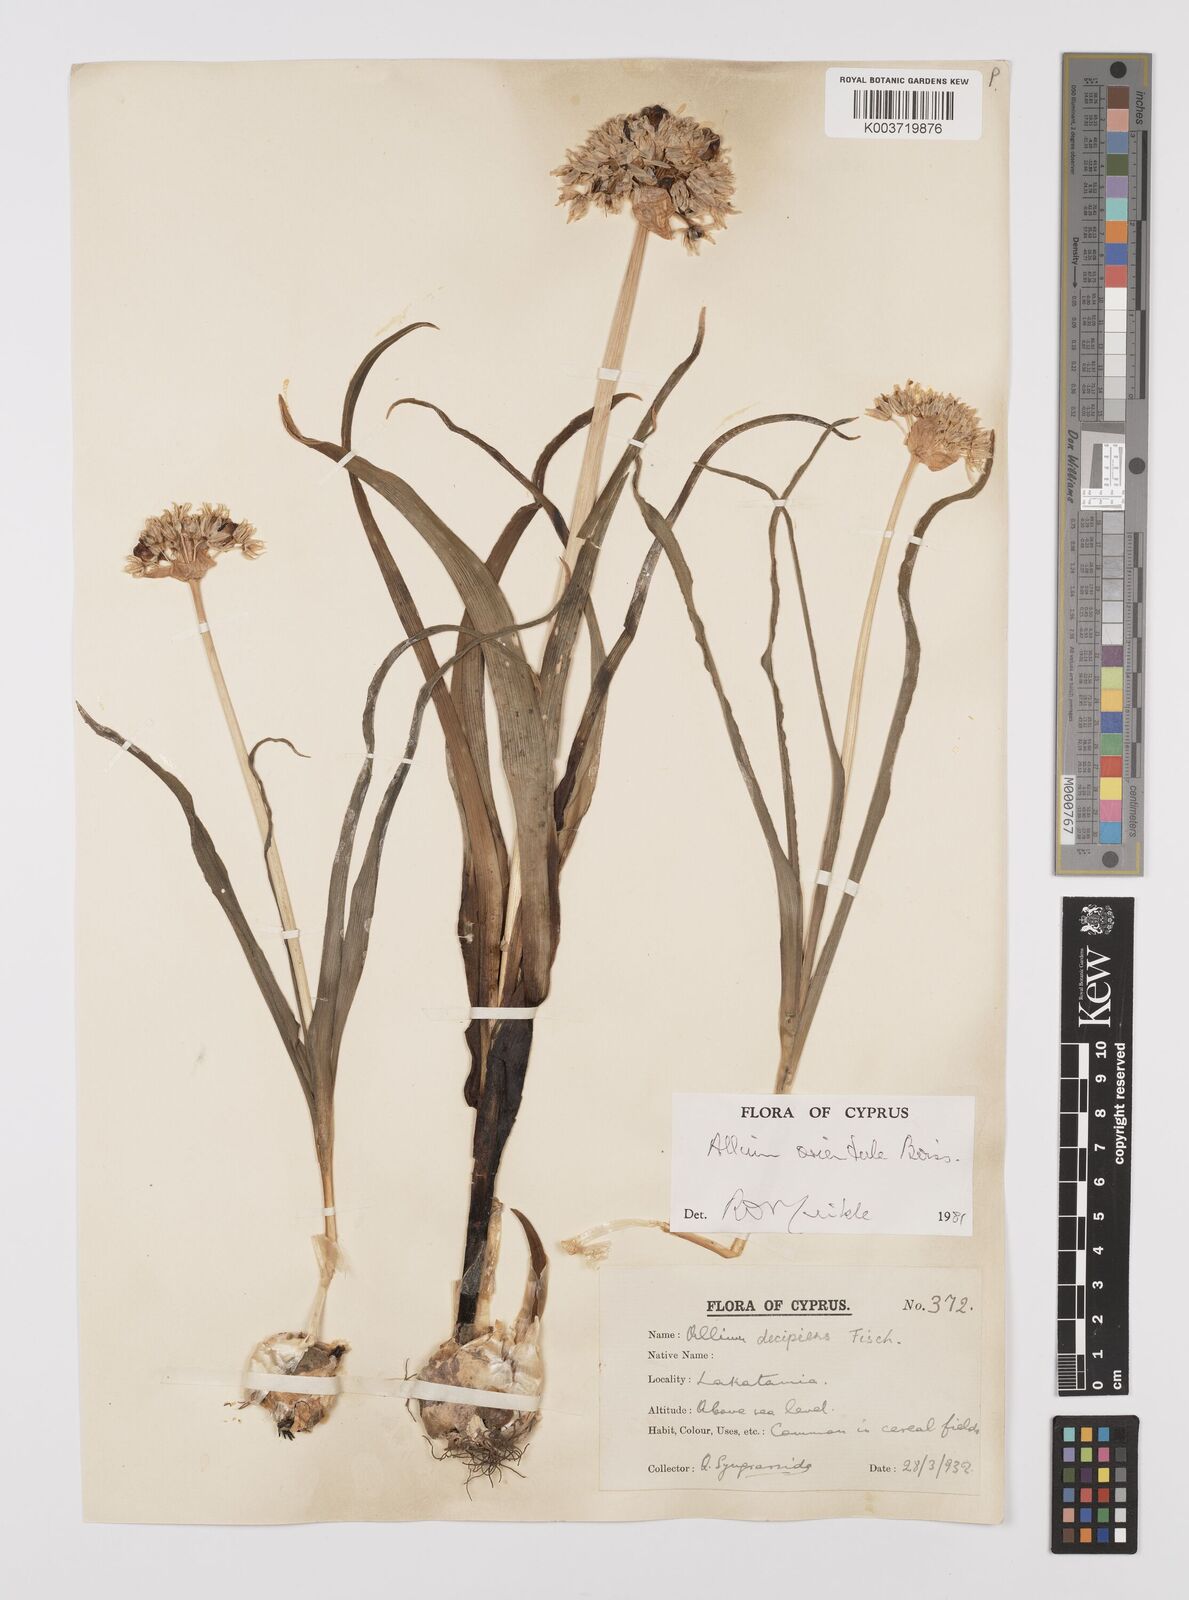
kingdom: Plantae
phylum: Tracheophyta
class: Liliopsida
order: Asparagales
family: Amaryllidaceae
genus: Allium
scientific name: Allium orientale
